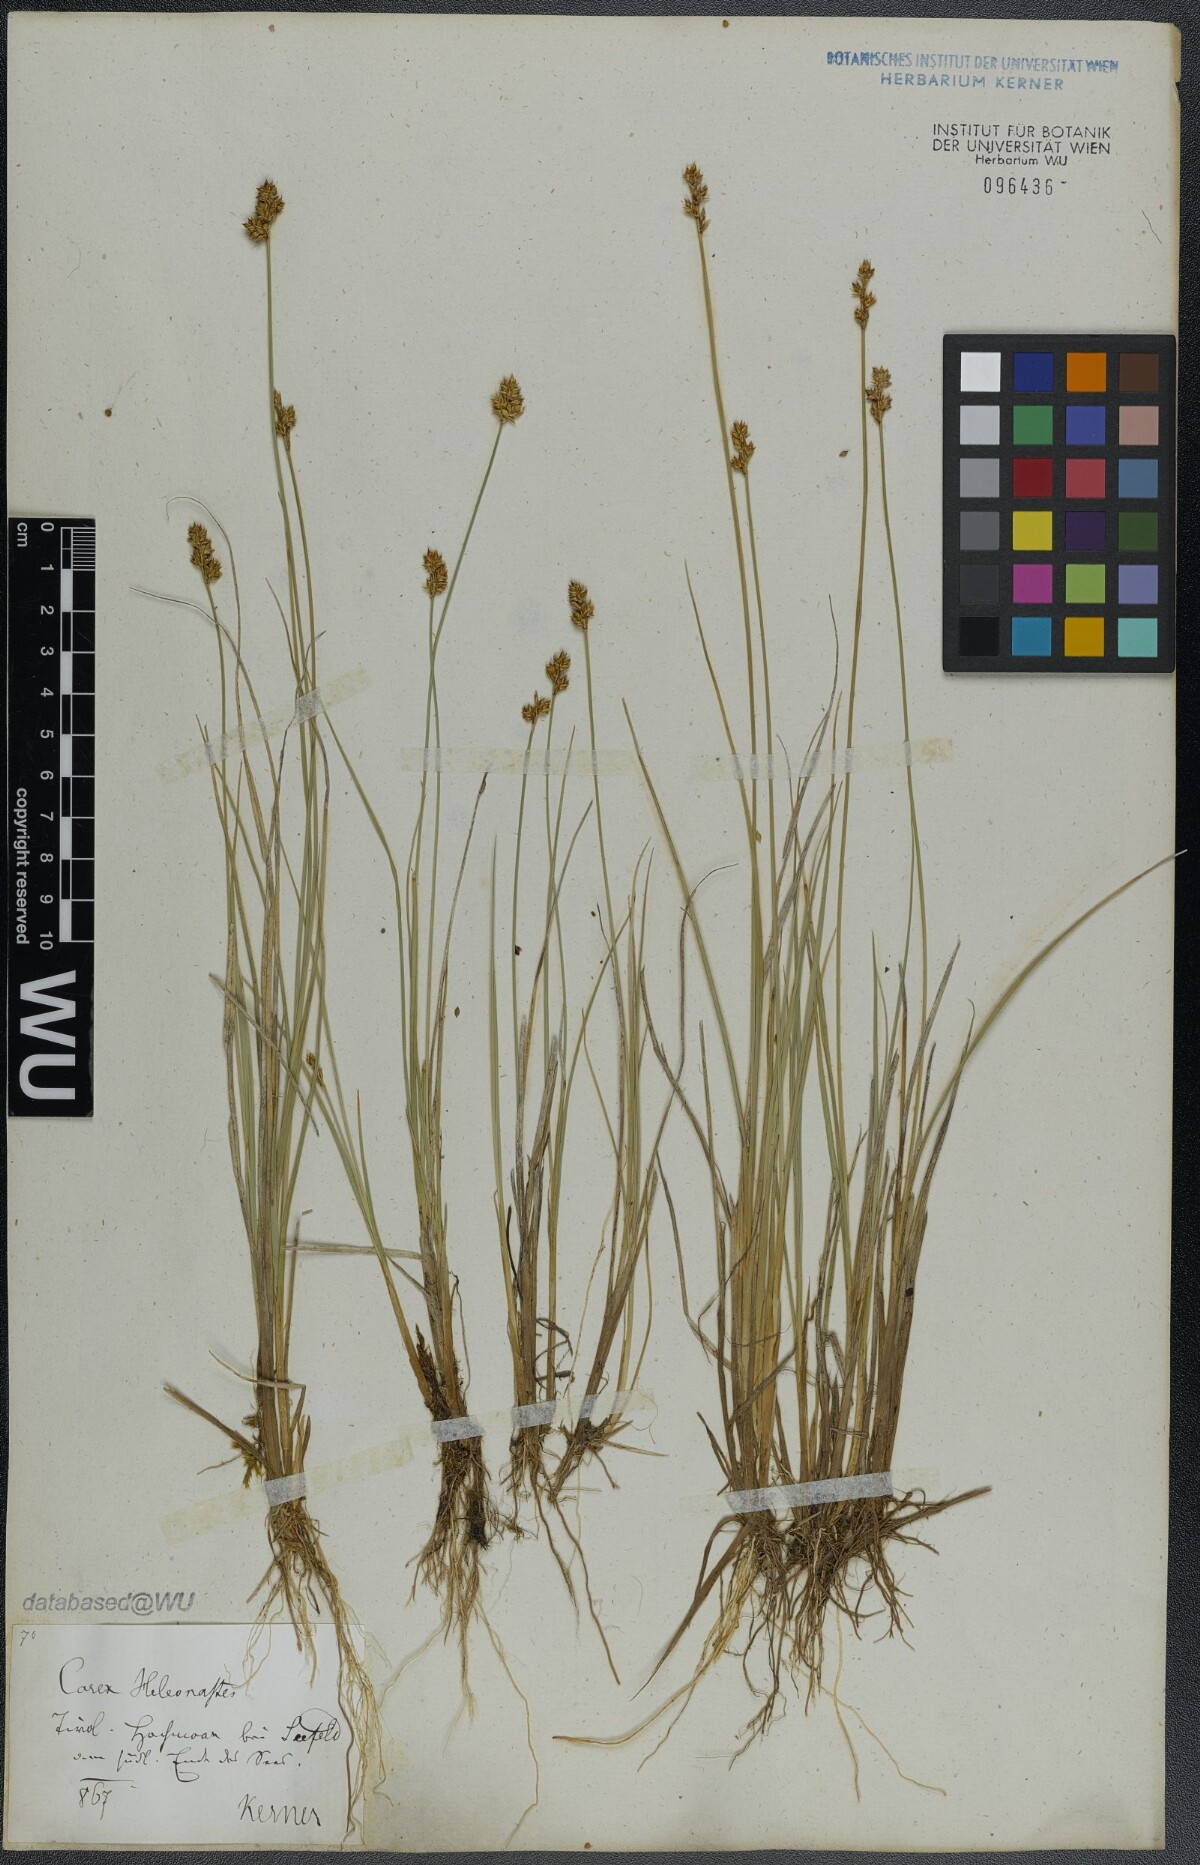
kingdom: Plantae
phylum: Tracheophyta
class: Liliopsida
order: Poales
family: Cyperaceae
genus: Carex
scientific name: Carex heleonastes
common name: Hudson bay sedge
